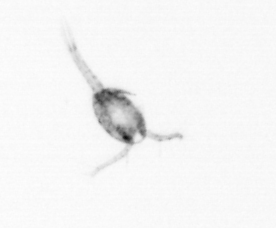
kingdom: Animalia
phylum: Arthropoda
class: Copepoda
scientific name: Copepoda
